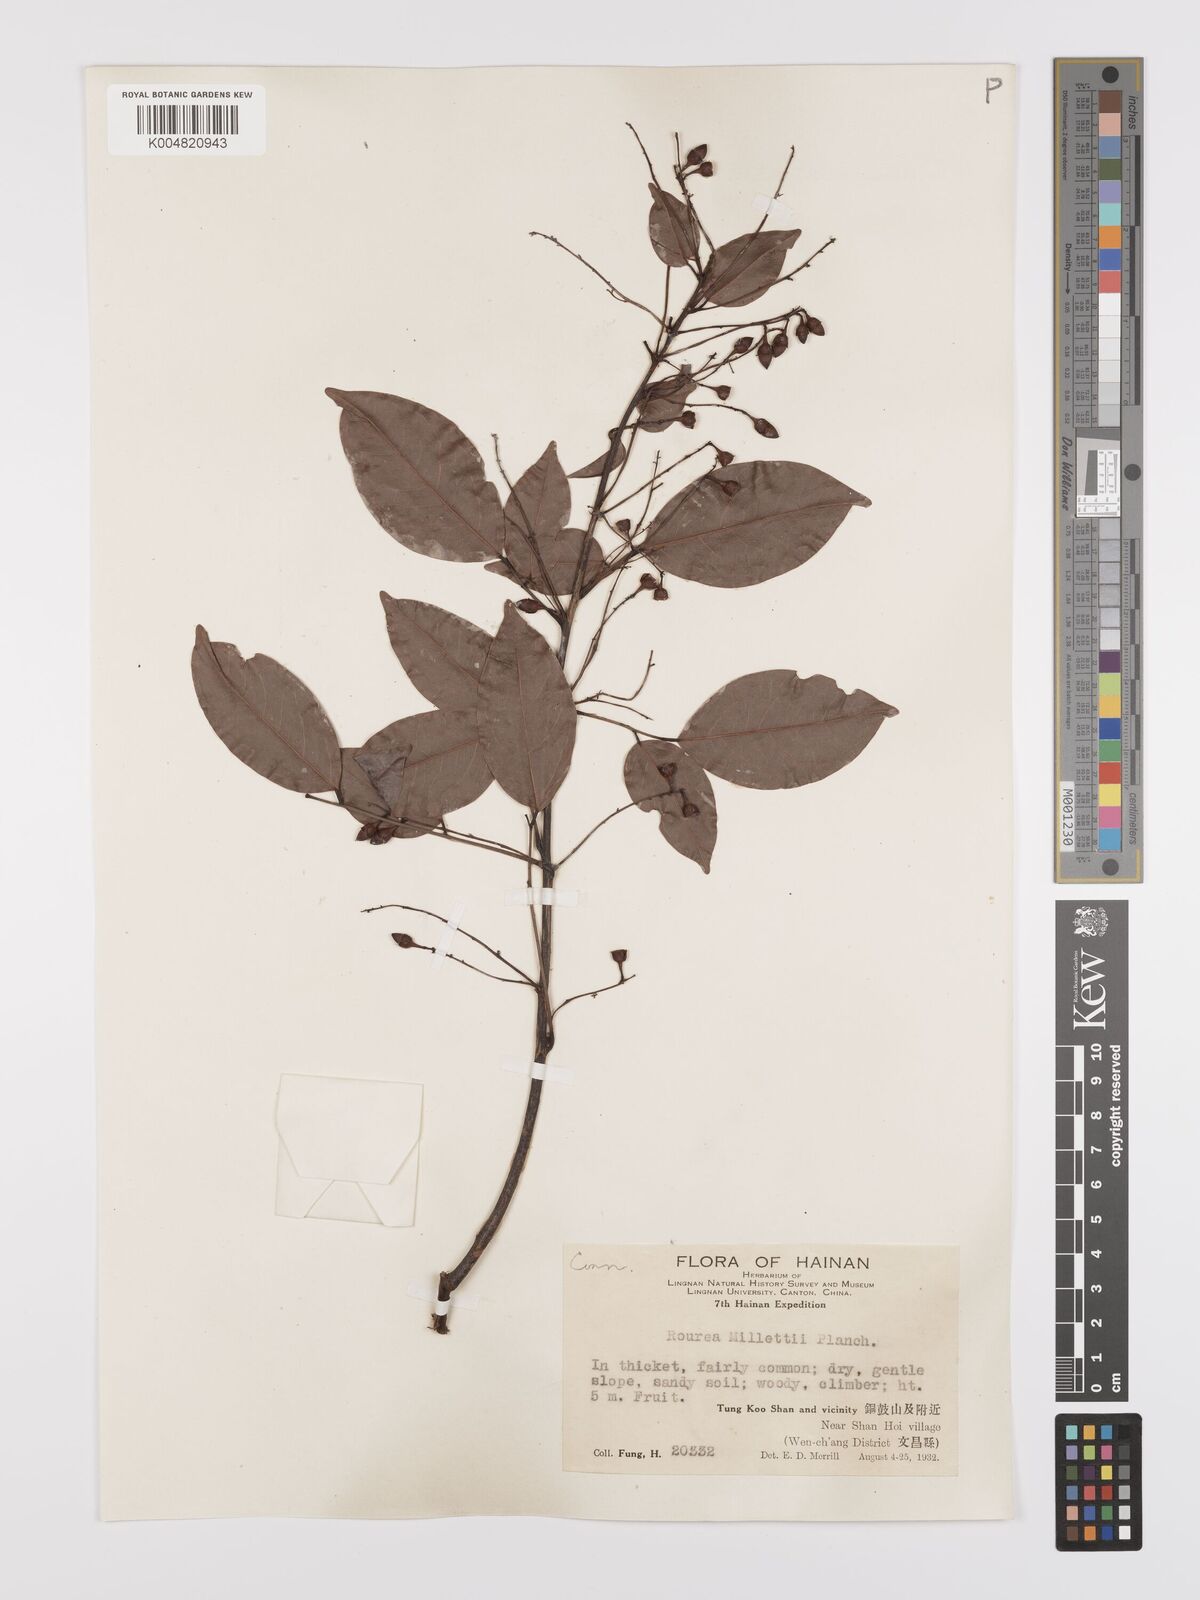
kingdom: Plantae
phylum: Tracheophyta
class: Magnoliopsida
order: Oxalidales
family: Connaraceae
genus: Rourea
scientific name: Rourea
